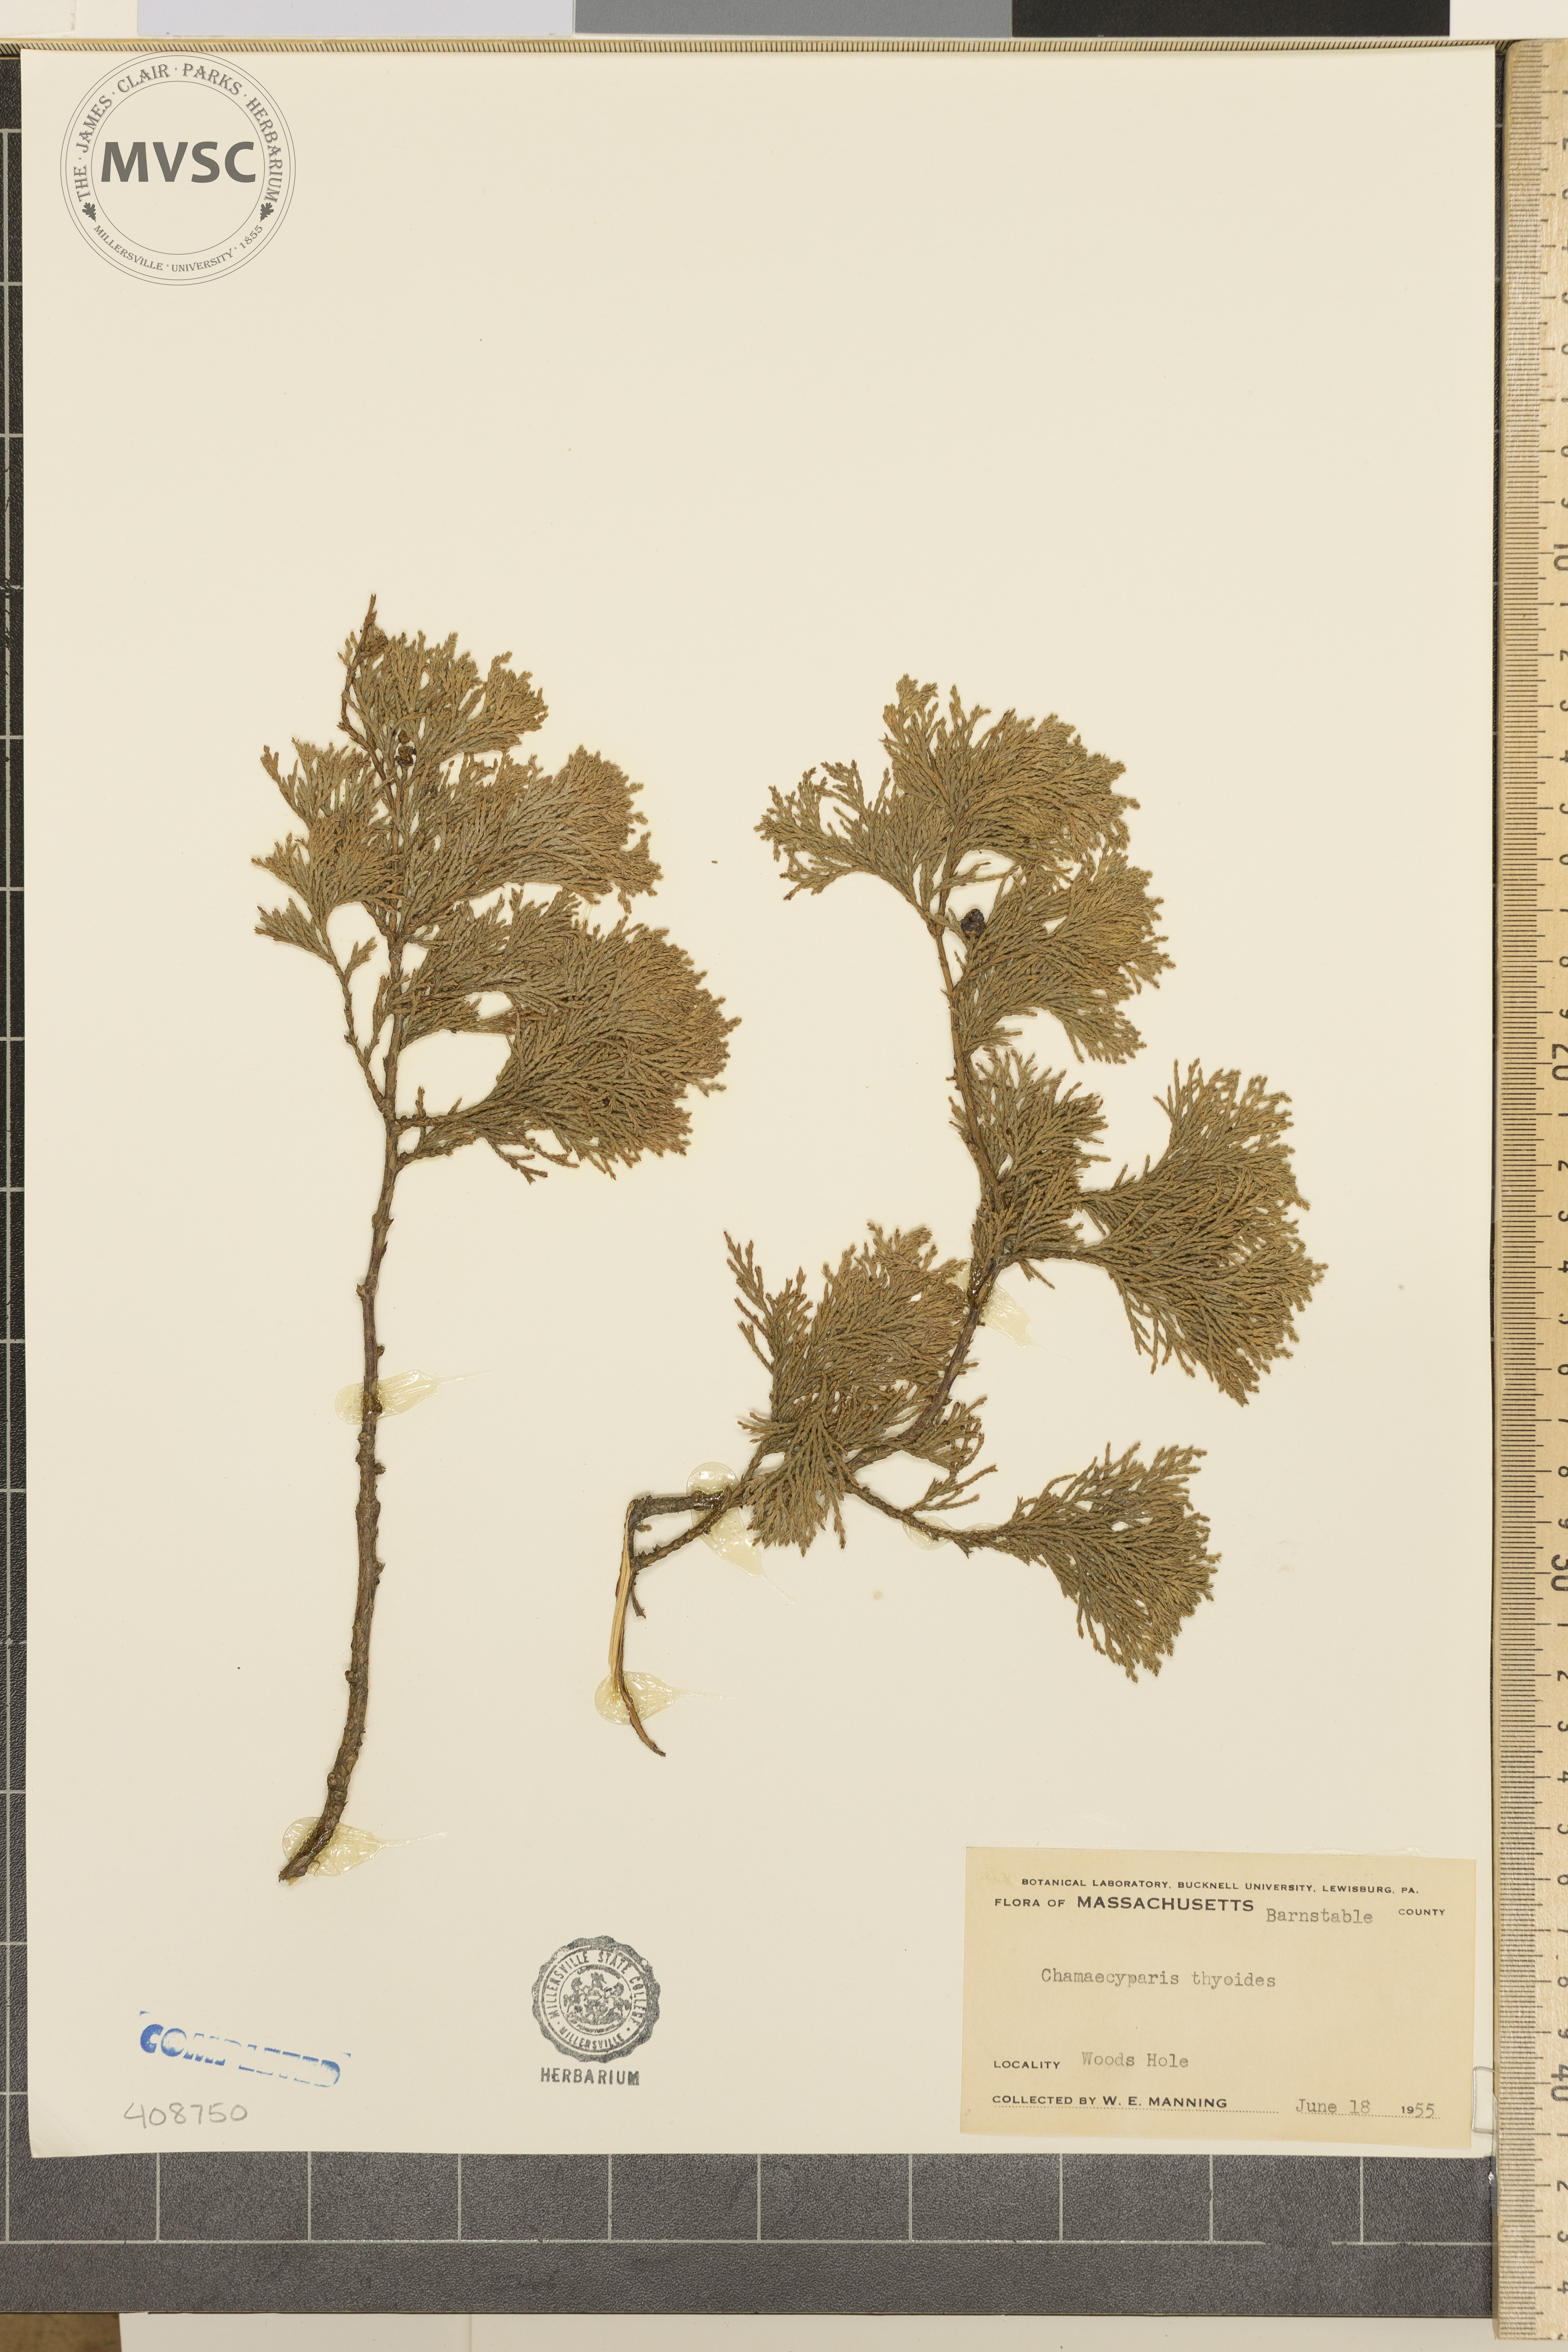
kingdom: Plantae
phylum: Tracheophyta
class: Pinopsida
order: Pinales
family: Cupressaceae
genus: Chamaecyparis
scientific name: Chamaecyparis thyoides
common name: Atlantic white cedar
